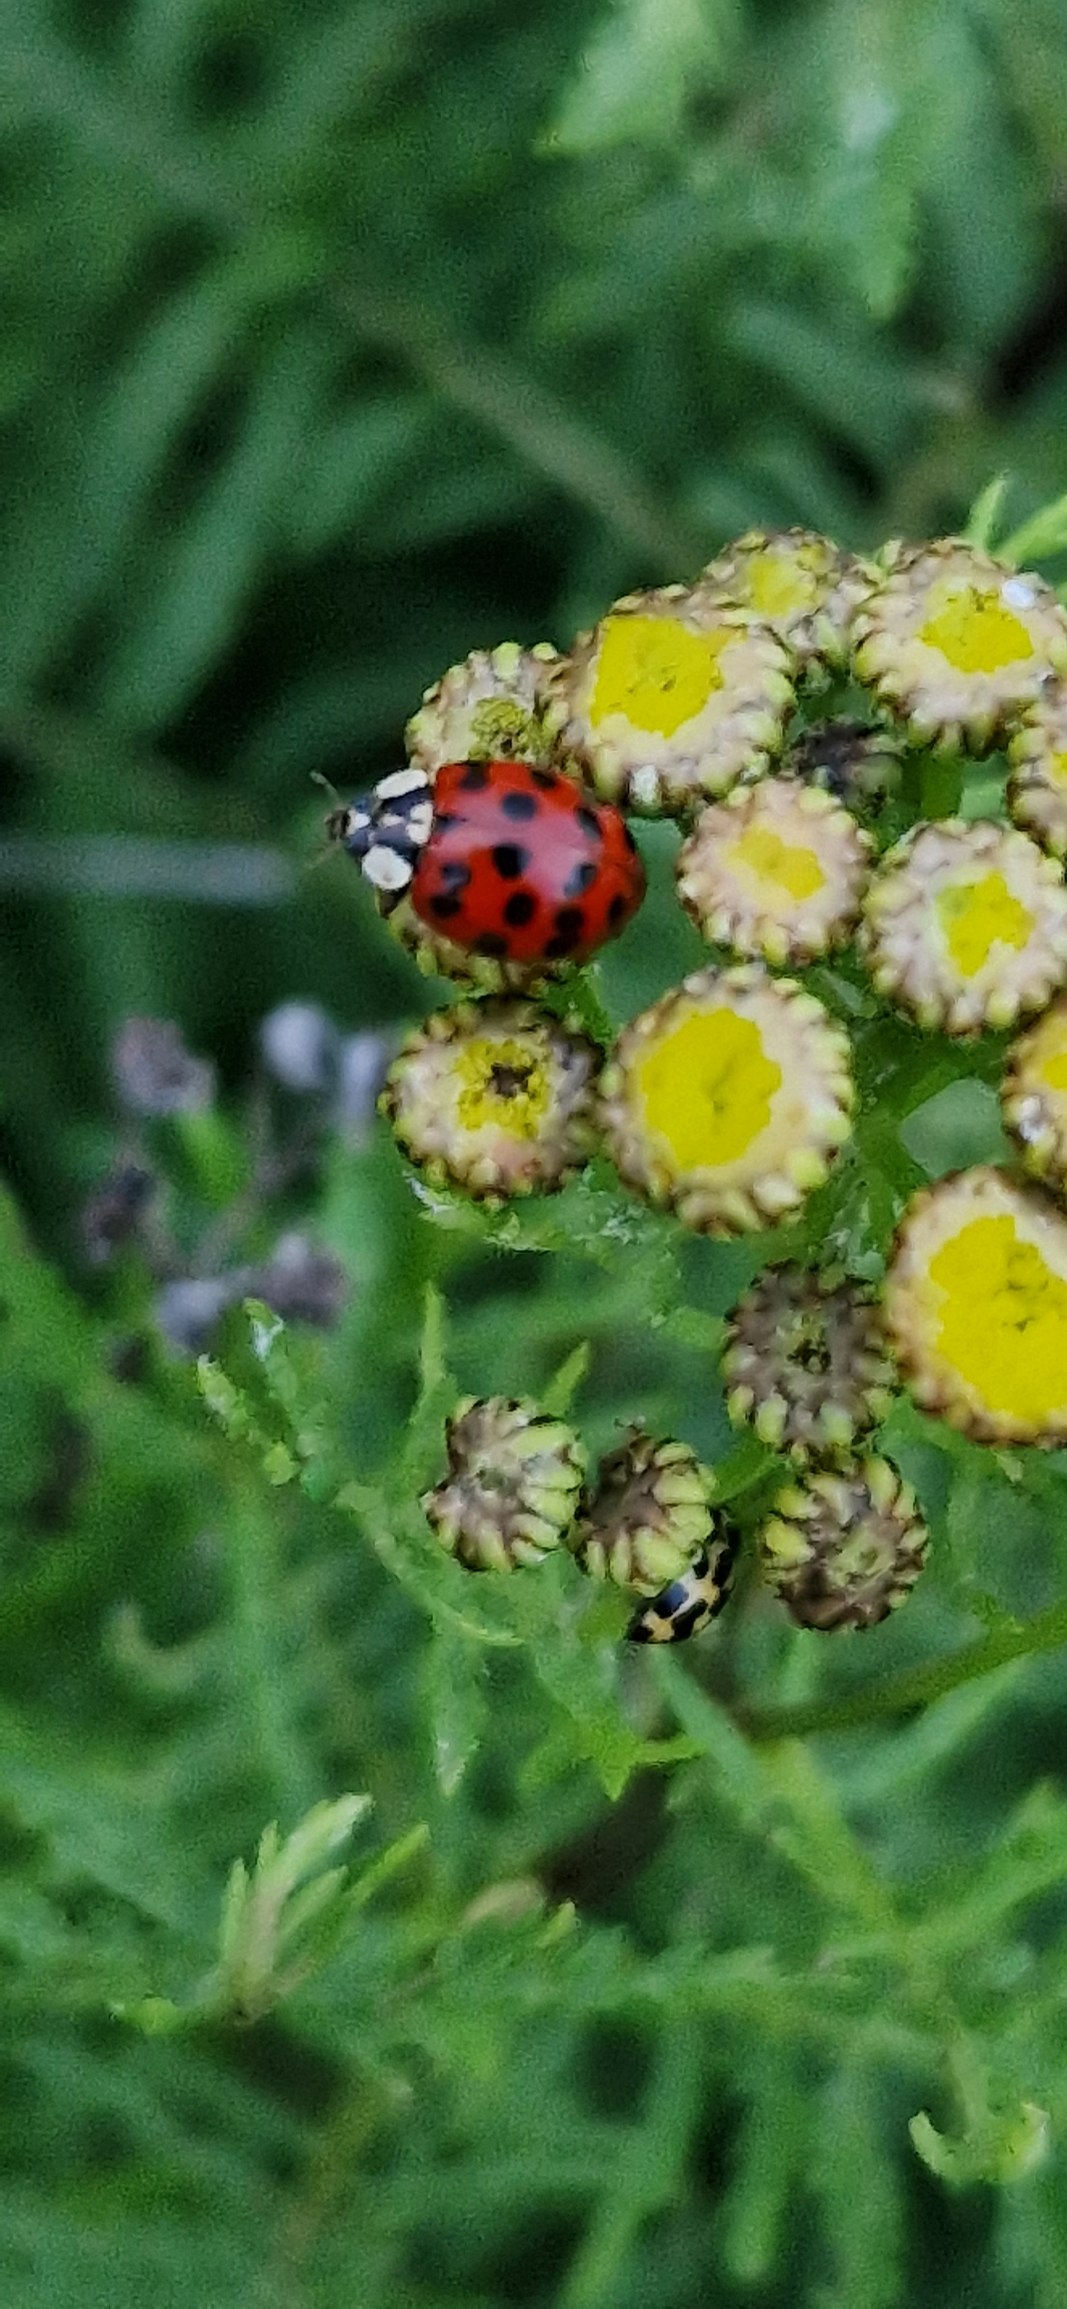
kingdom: Animalia
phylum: Arthropoda
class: Insecta
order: Coleoptera
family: Coccinellidae
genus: Harmonia
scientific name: Harmonia axyridis
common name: Harlekinmariehøne
